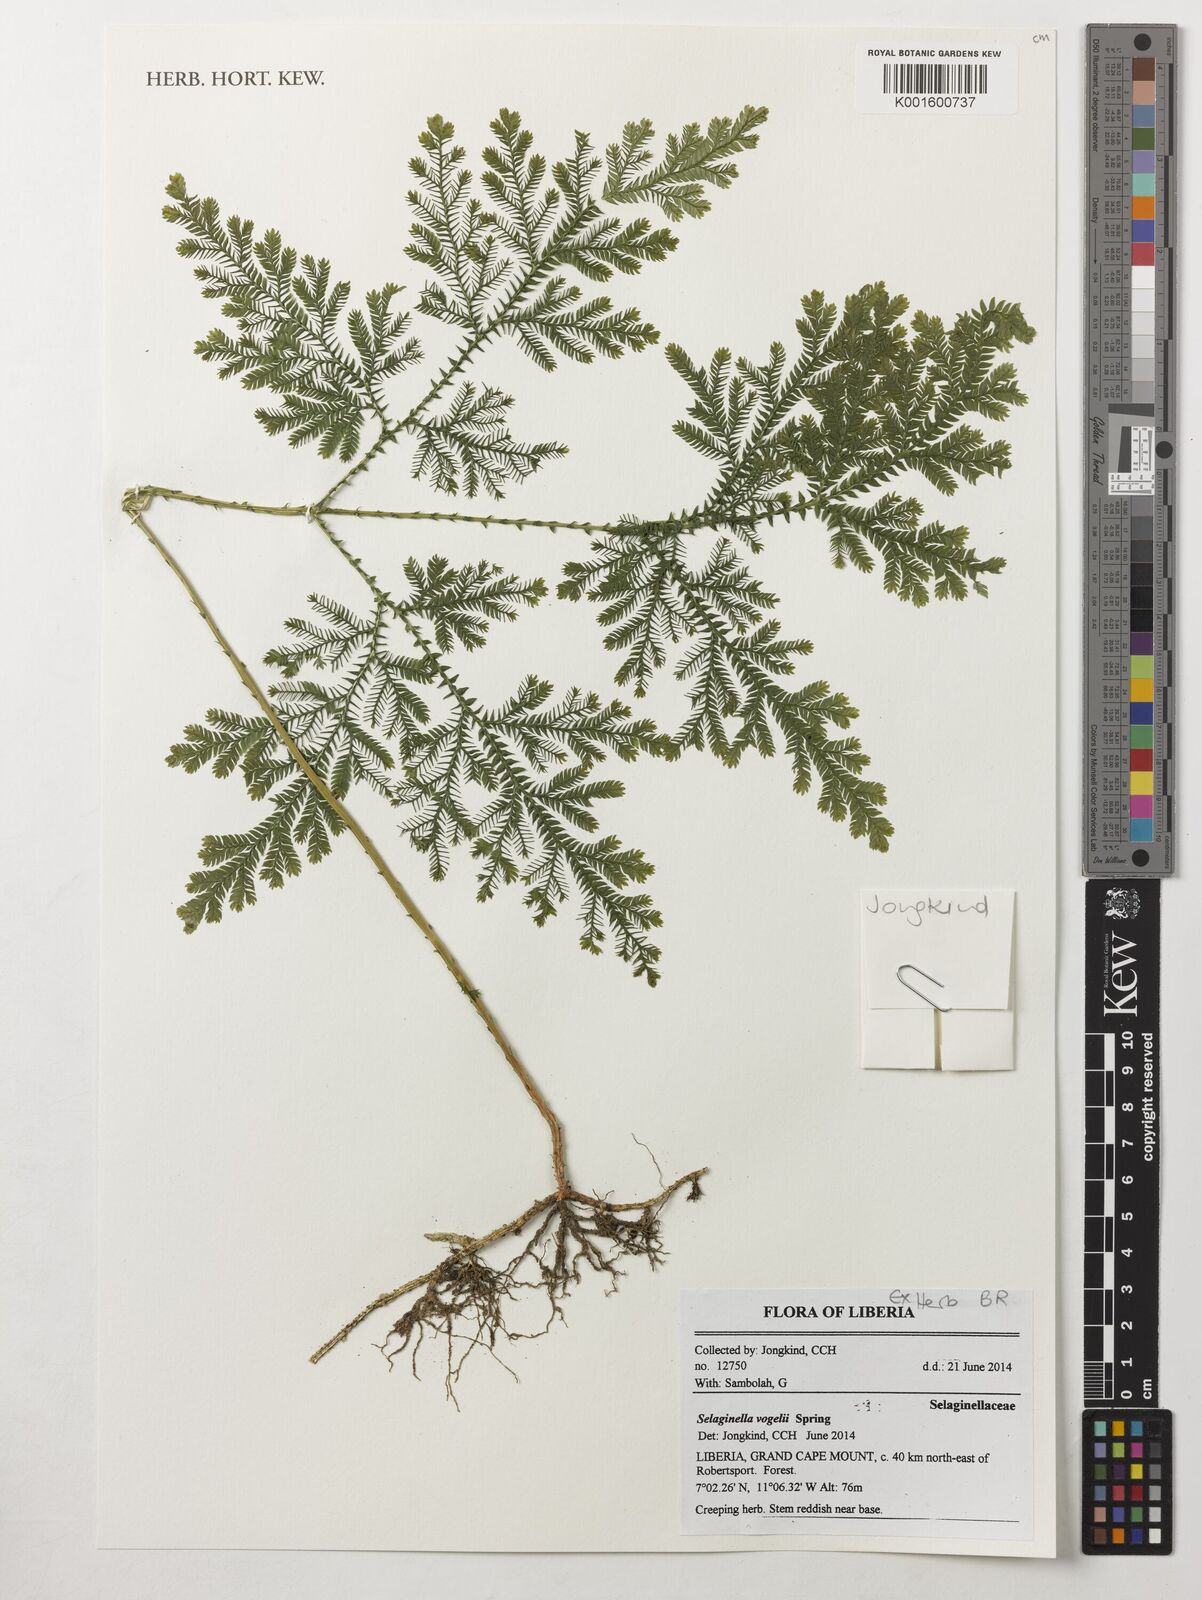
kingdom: Plantae
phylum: Tracheophyta
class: Lycopodiopsida
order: Selaginellales
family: Selaginellaceae
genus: Selaginella
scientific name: Selaginella vogelii
